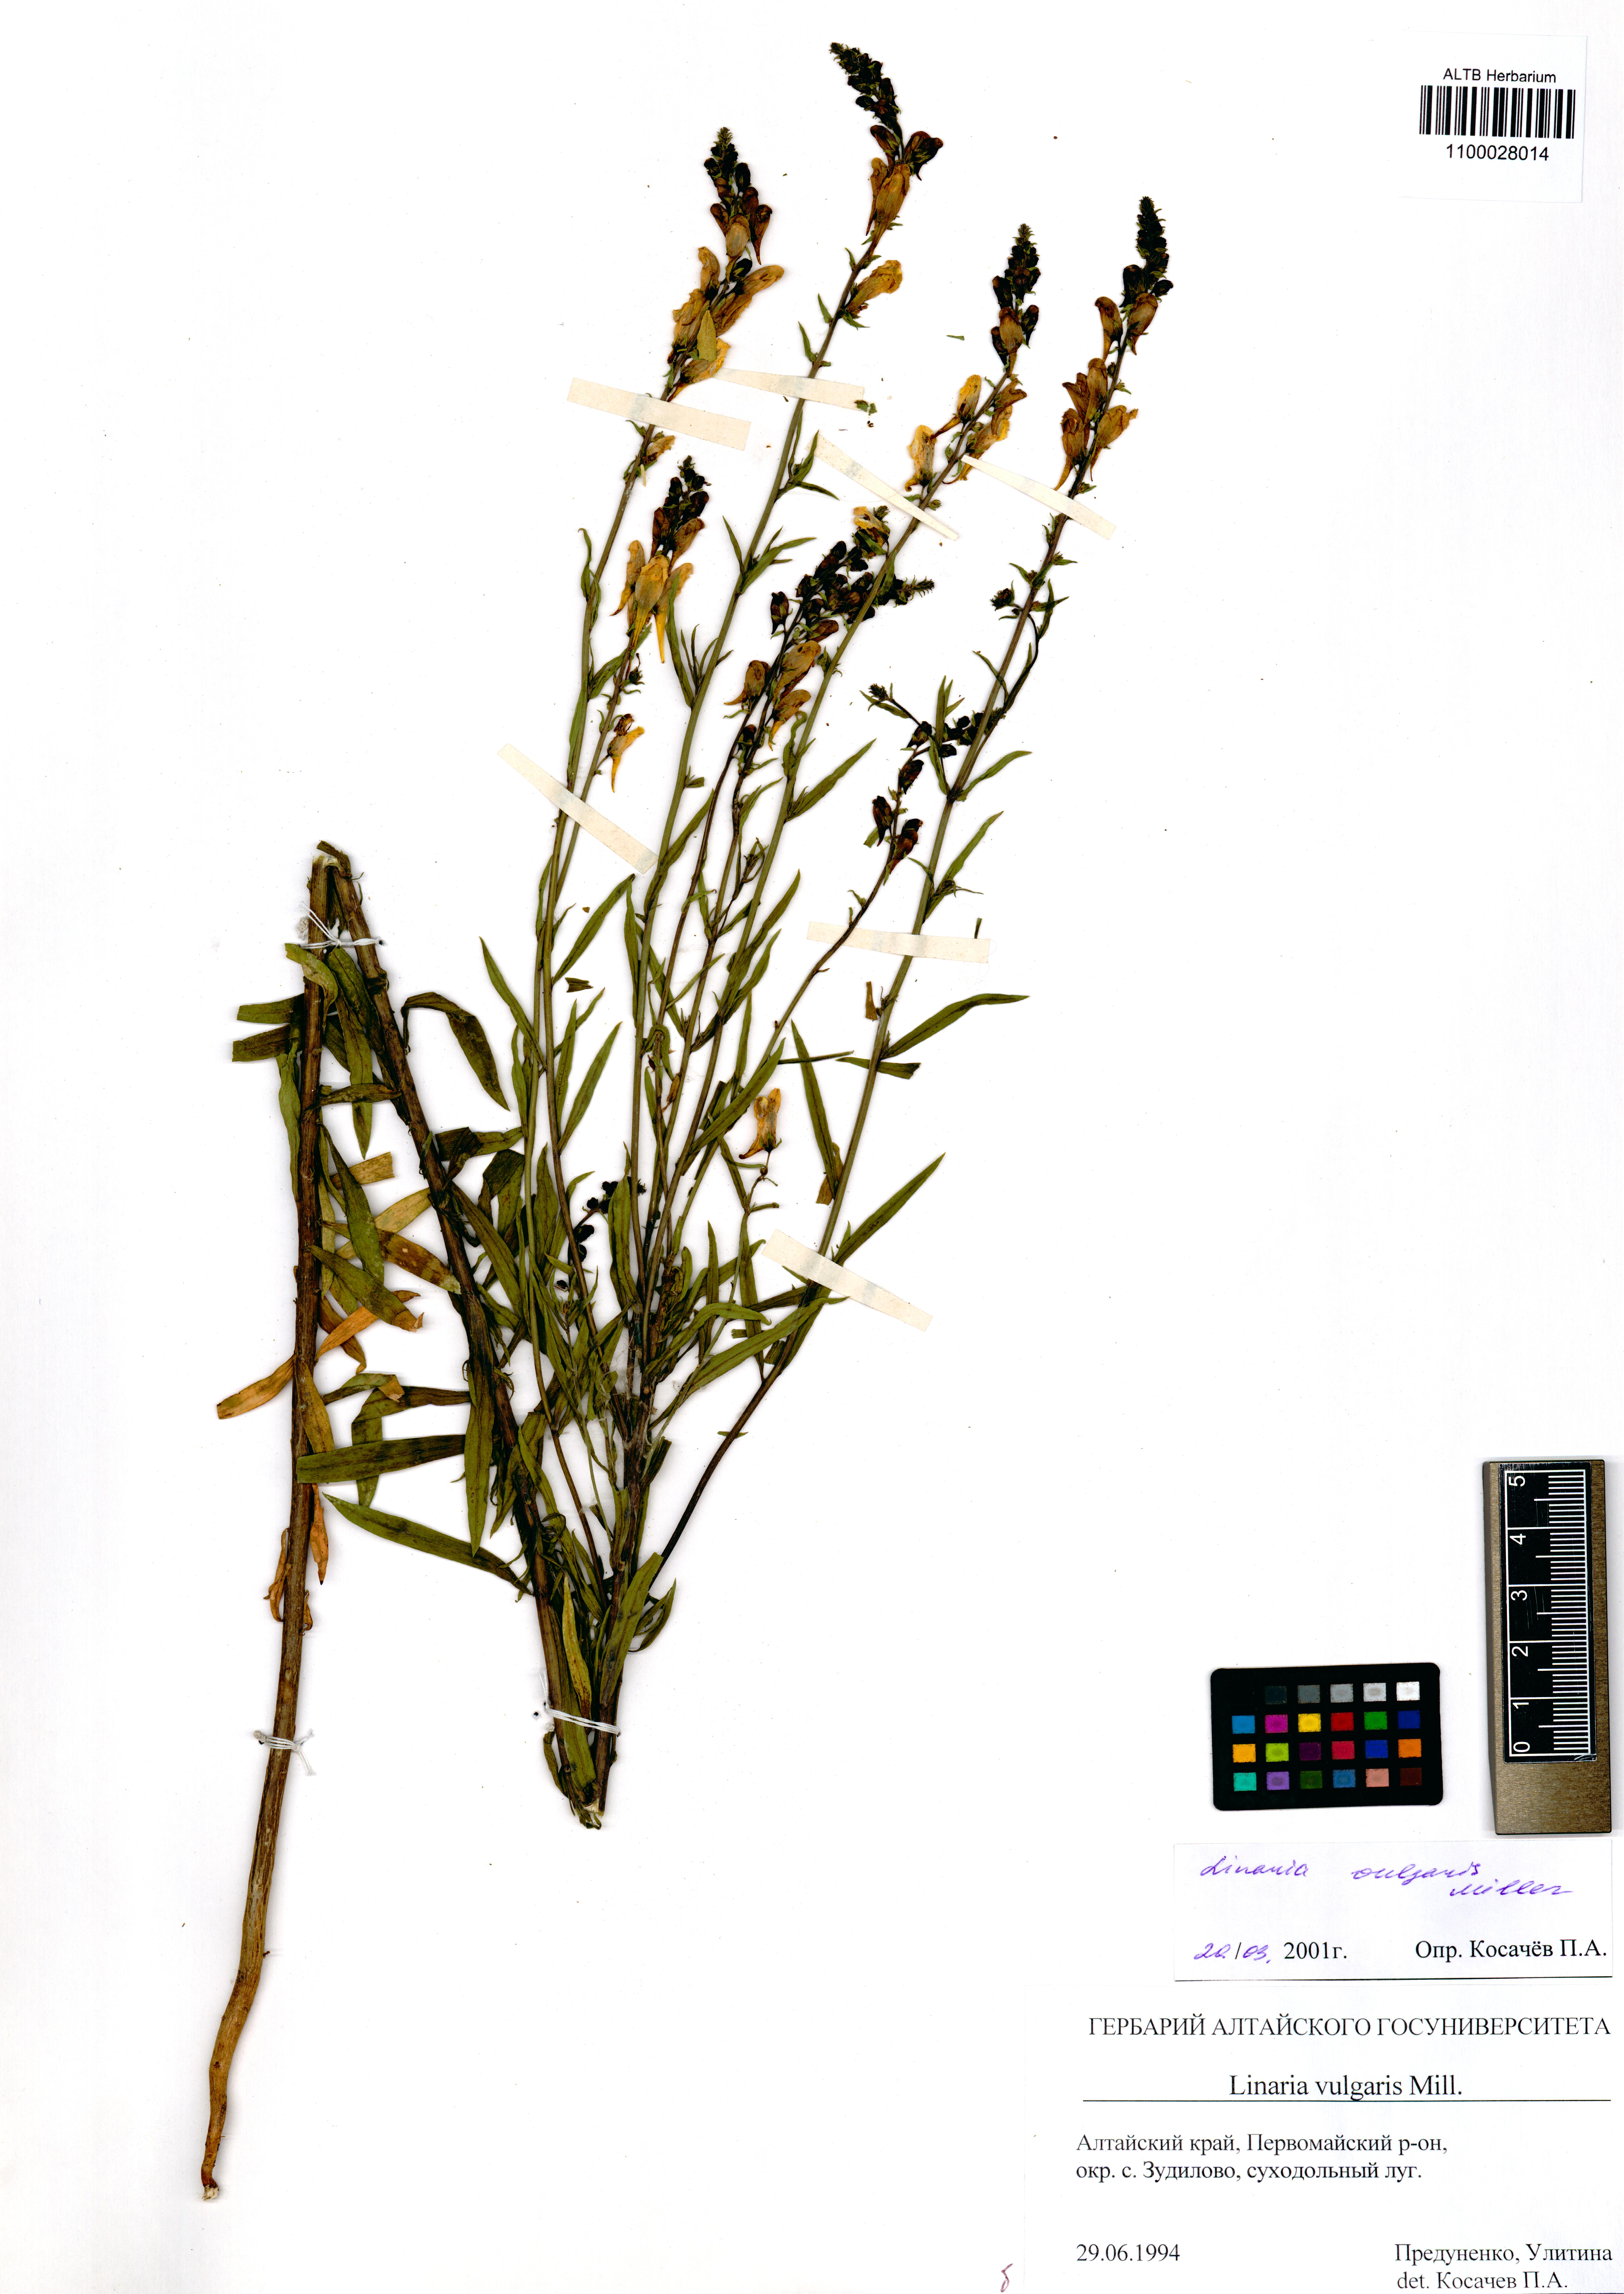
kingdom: Plantae
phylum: Tracheophyta
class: Magnoliopsida
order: Lamiales
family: Plantaginaceae
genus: Linaria
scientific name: Linaria vulgaris
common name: Butter and eggs
